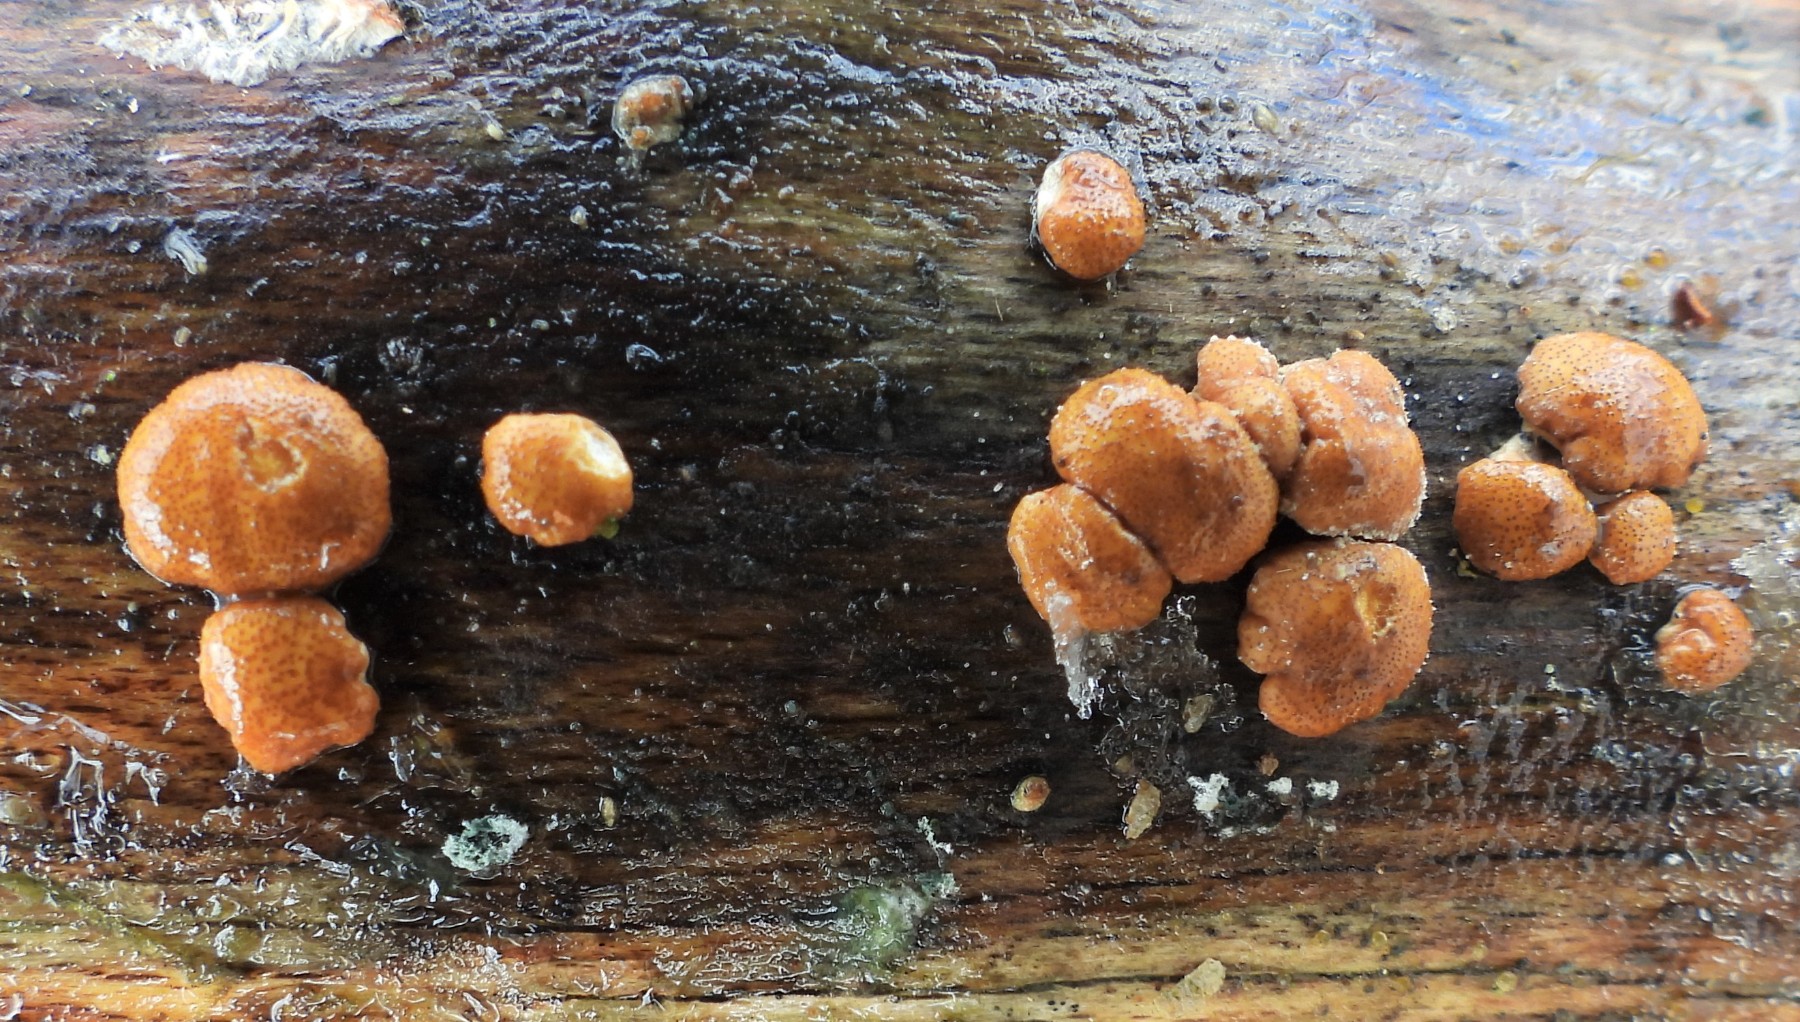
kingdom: Fungi
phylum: Ascomycota
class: Sordariomycetes
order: Hypocreales
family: Hypocreaceae
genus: Trichoderma
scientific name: Trichoderma europaeum
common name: rosabrun kødkerne
